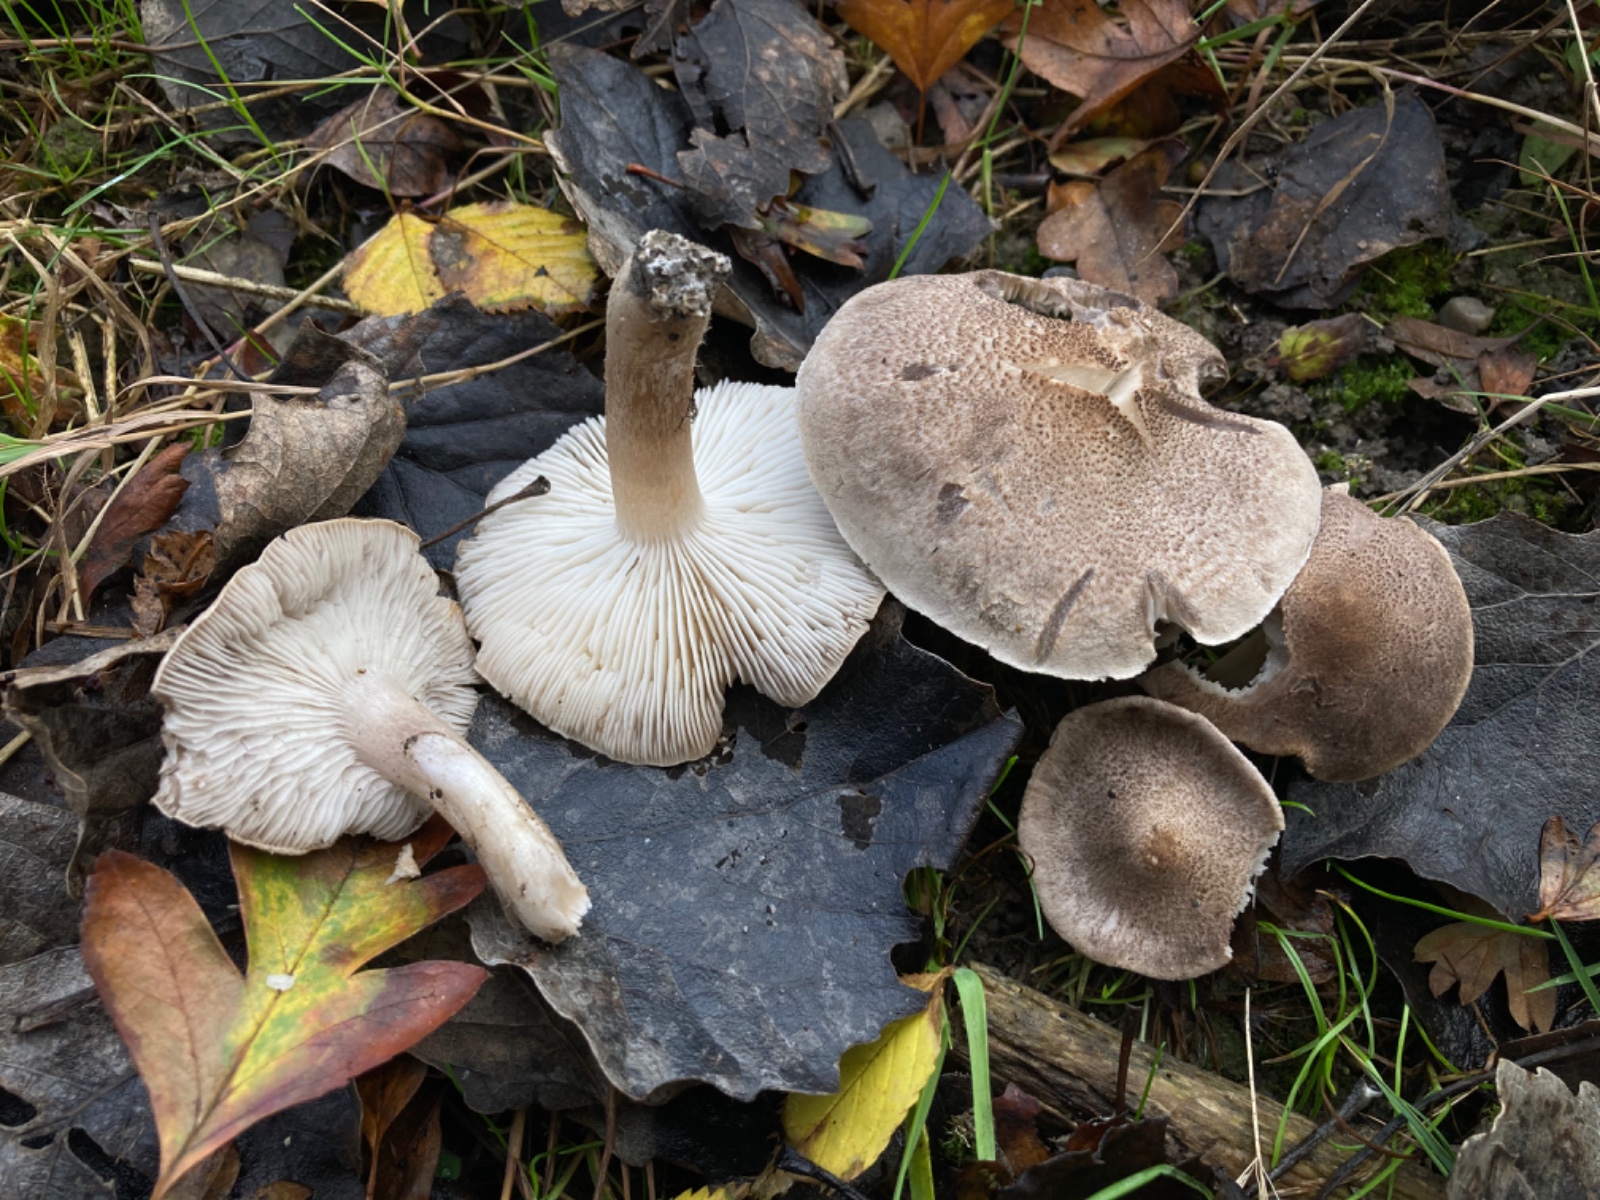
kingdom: Fungi
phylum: Basidiomycota
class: Agaricomycetes
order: Agaricales
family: Tricholomataceae
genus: Tricholoma
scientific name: Tricholoma scalpturatum
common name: gulplettet ridderhat
